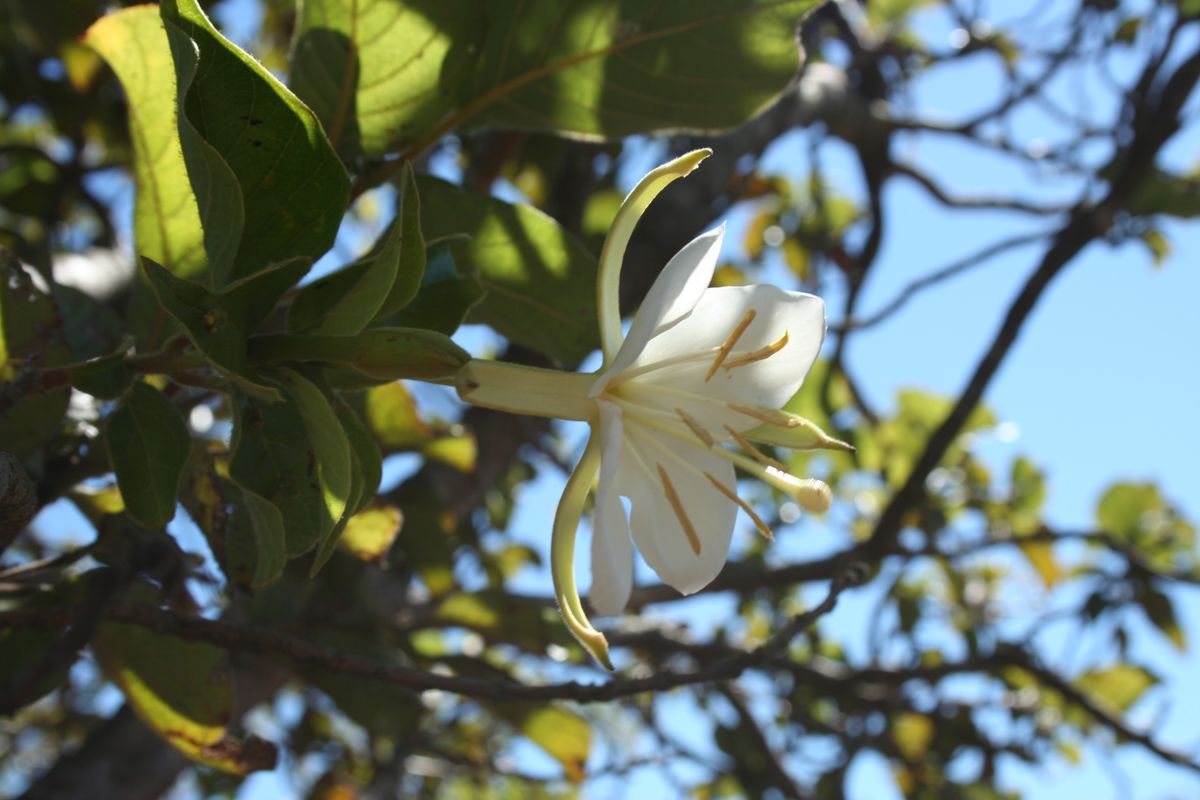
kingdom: Plantae
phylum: Tracheophyta
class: Magnoliopsida
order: Myrtales
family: Onagraceae
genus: Hauya
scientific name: Hauya elegans
